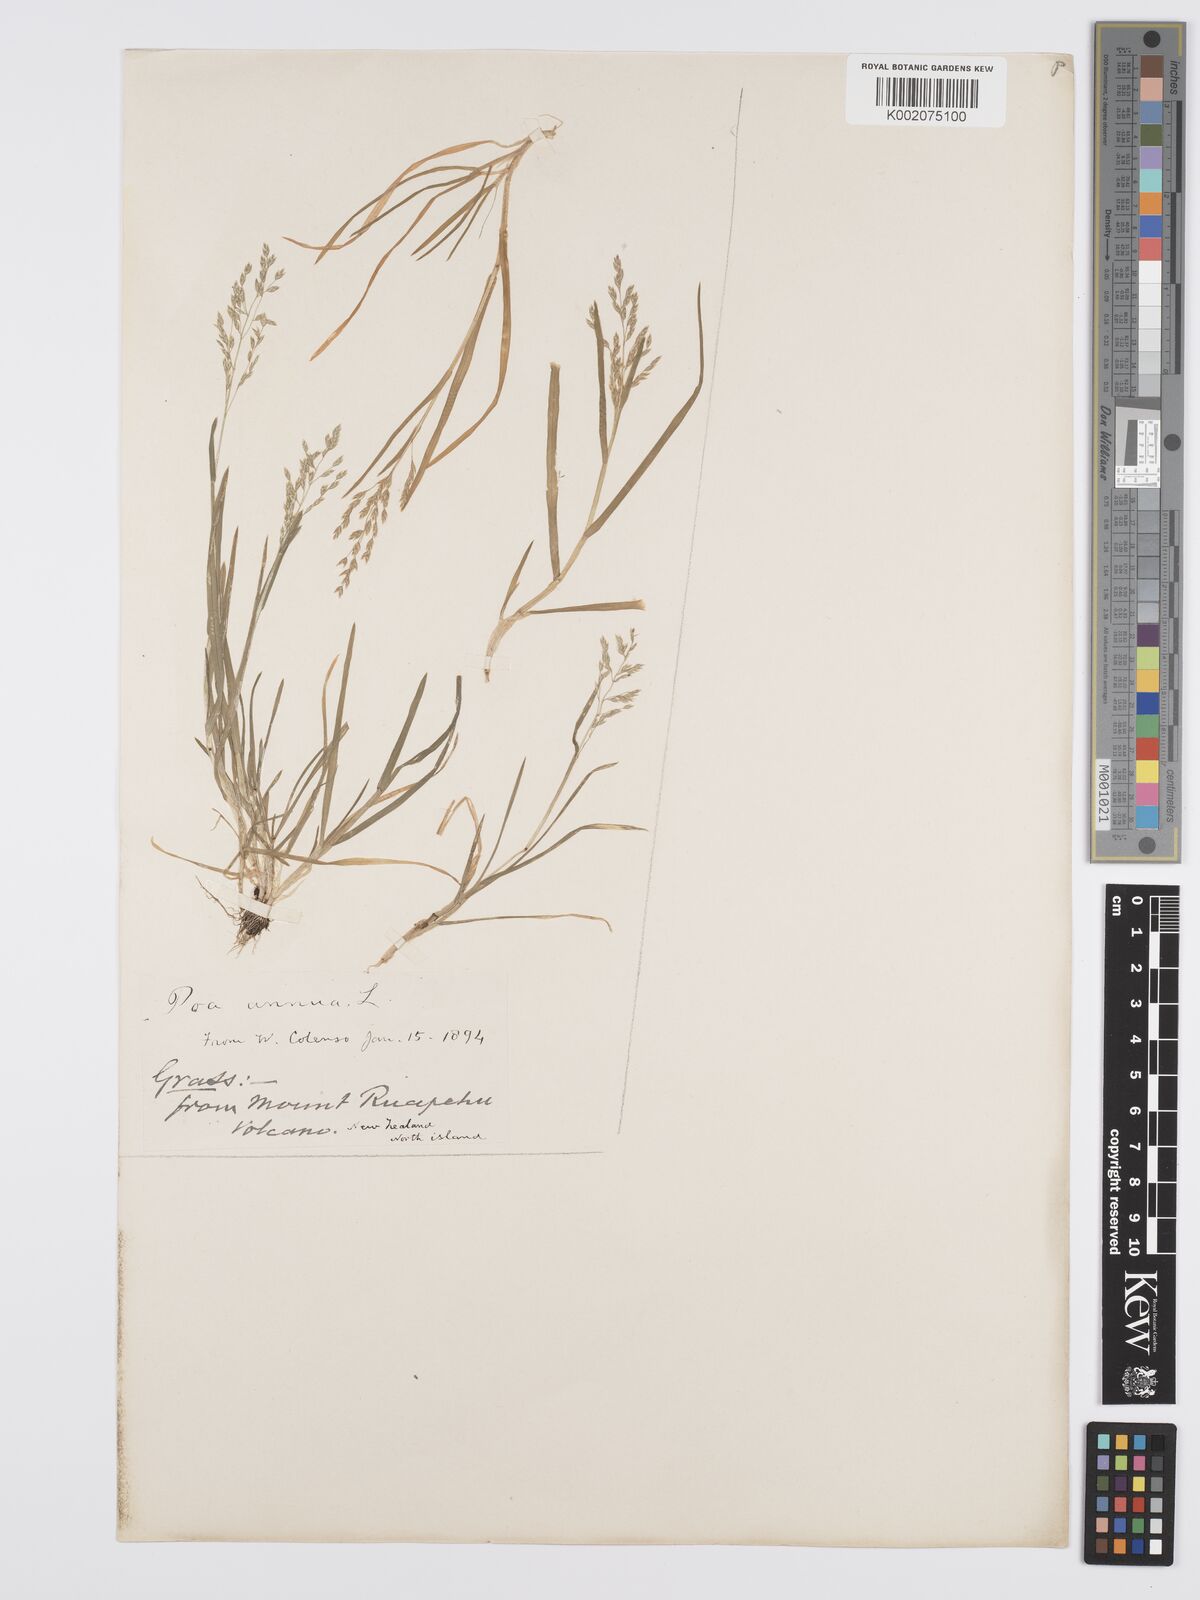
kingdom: Plantae
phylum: Tracheophyta
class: Liliopsida
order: Poales
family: Poaceae
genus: Poa
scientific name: Poa annua
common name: Annual bluegrass
